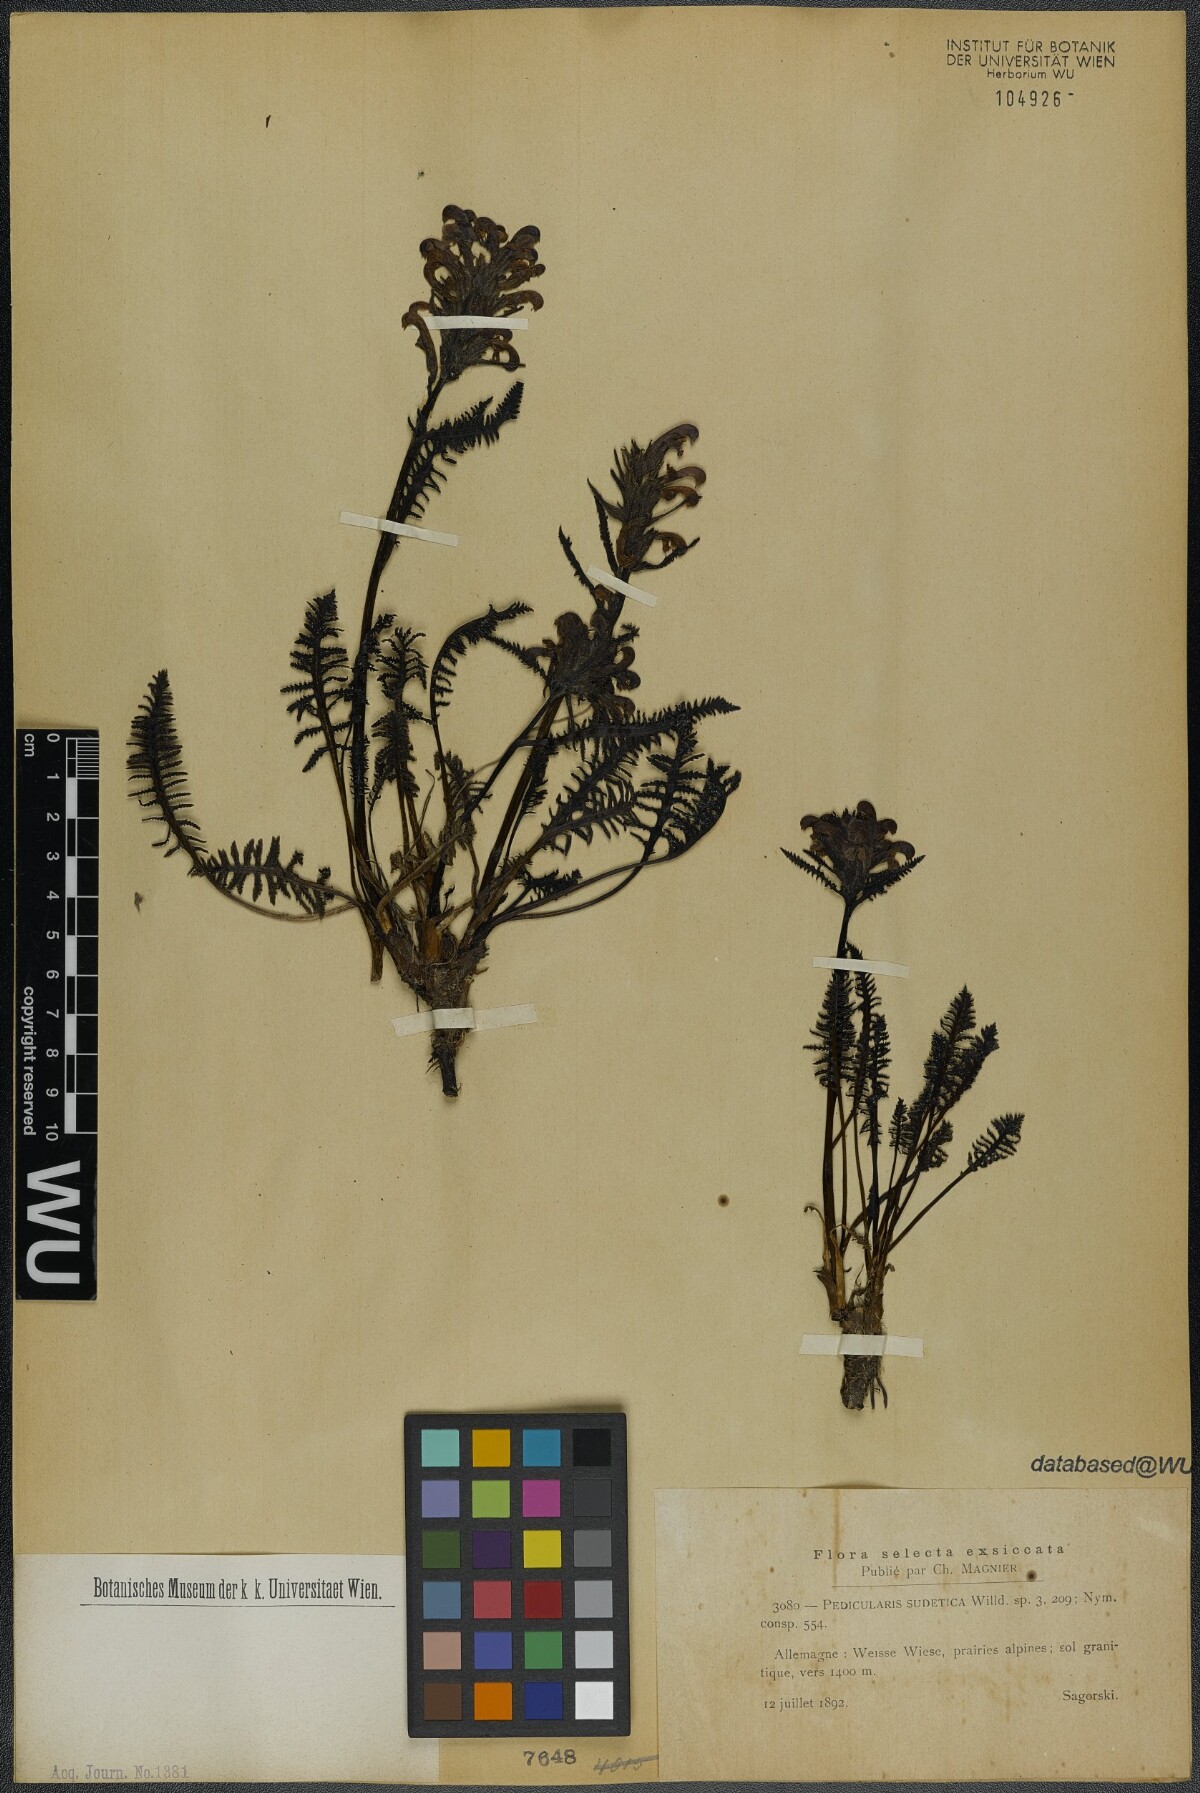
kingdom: Plantae
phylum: Tracheophyta
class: Magnoliopsida
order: Lamiales
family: Orobanchaceae
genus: Pedicularis
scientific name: Pedicularis sudetica
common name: Sudeten lousewort
